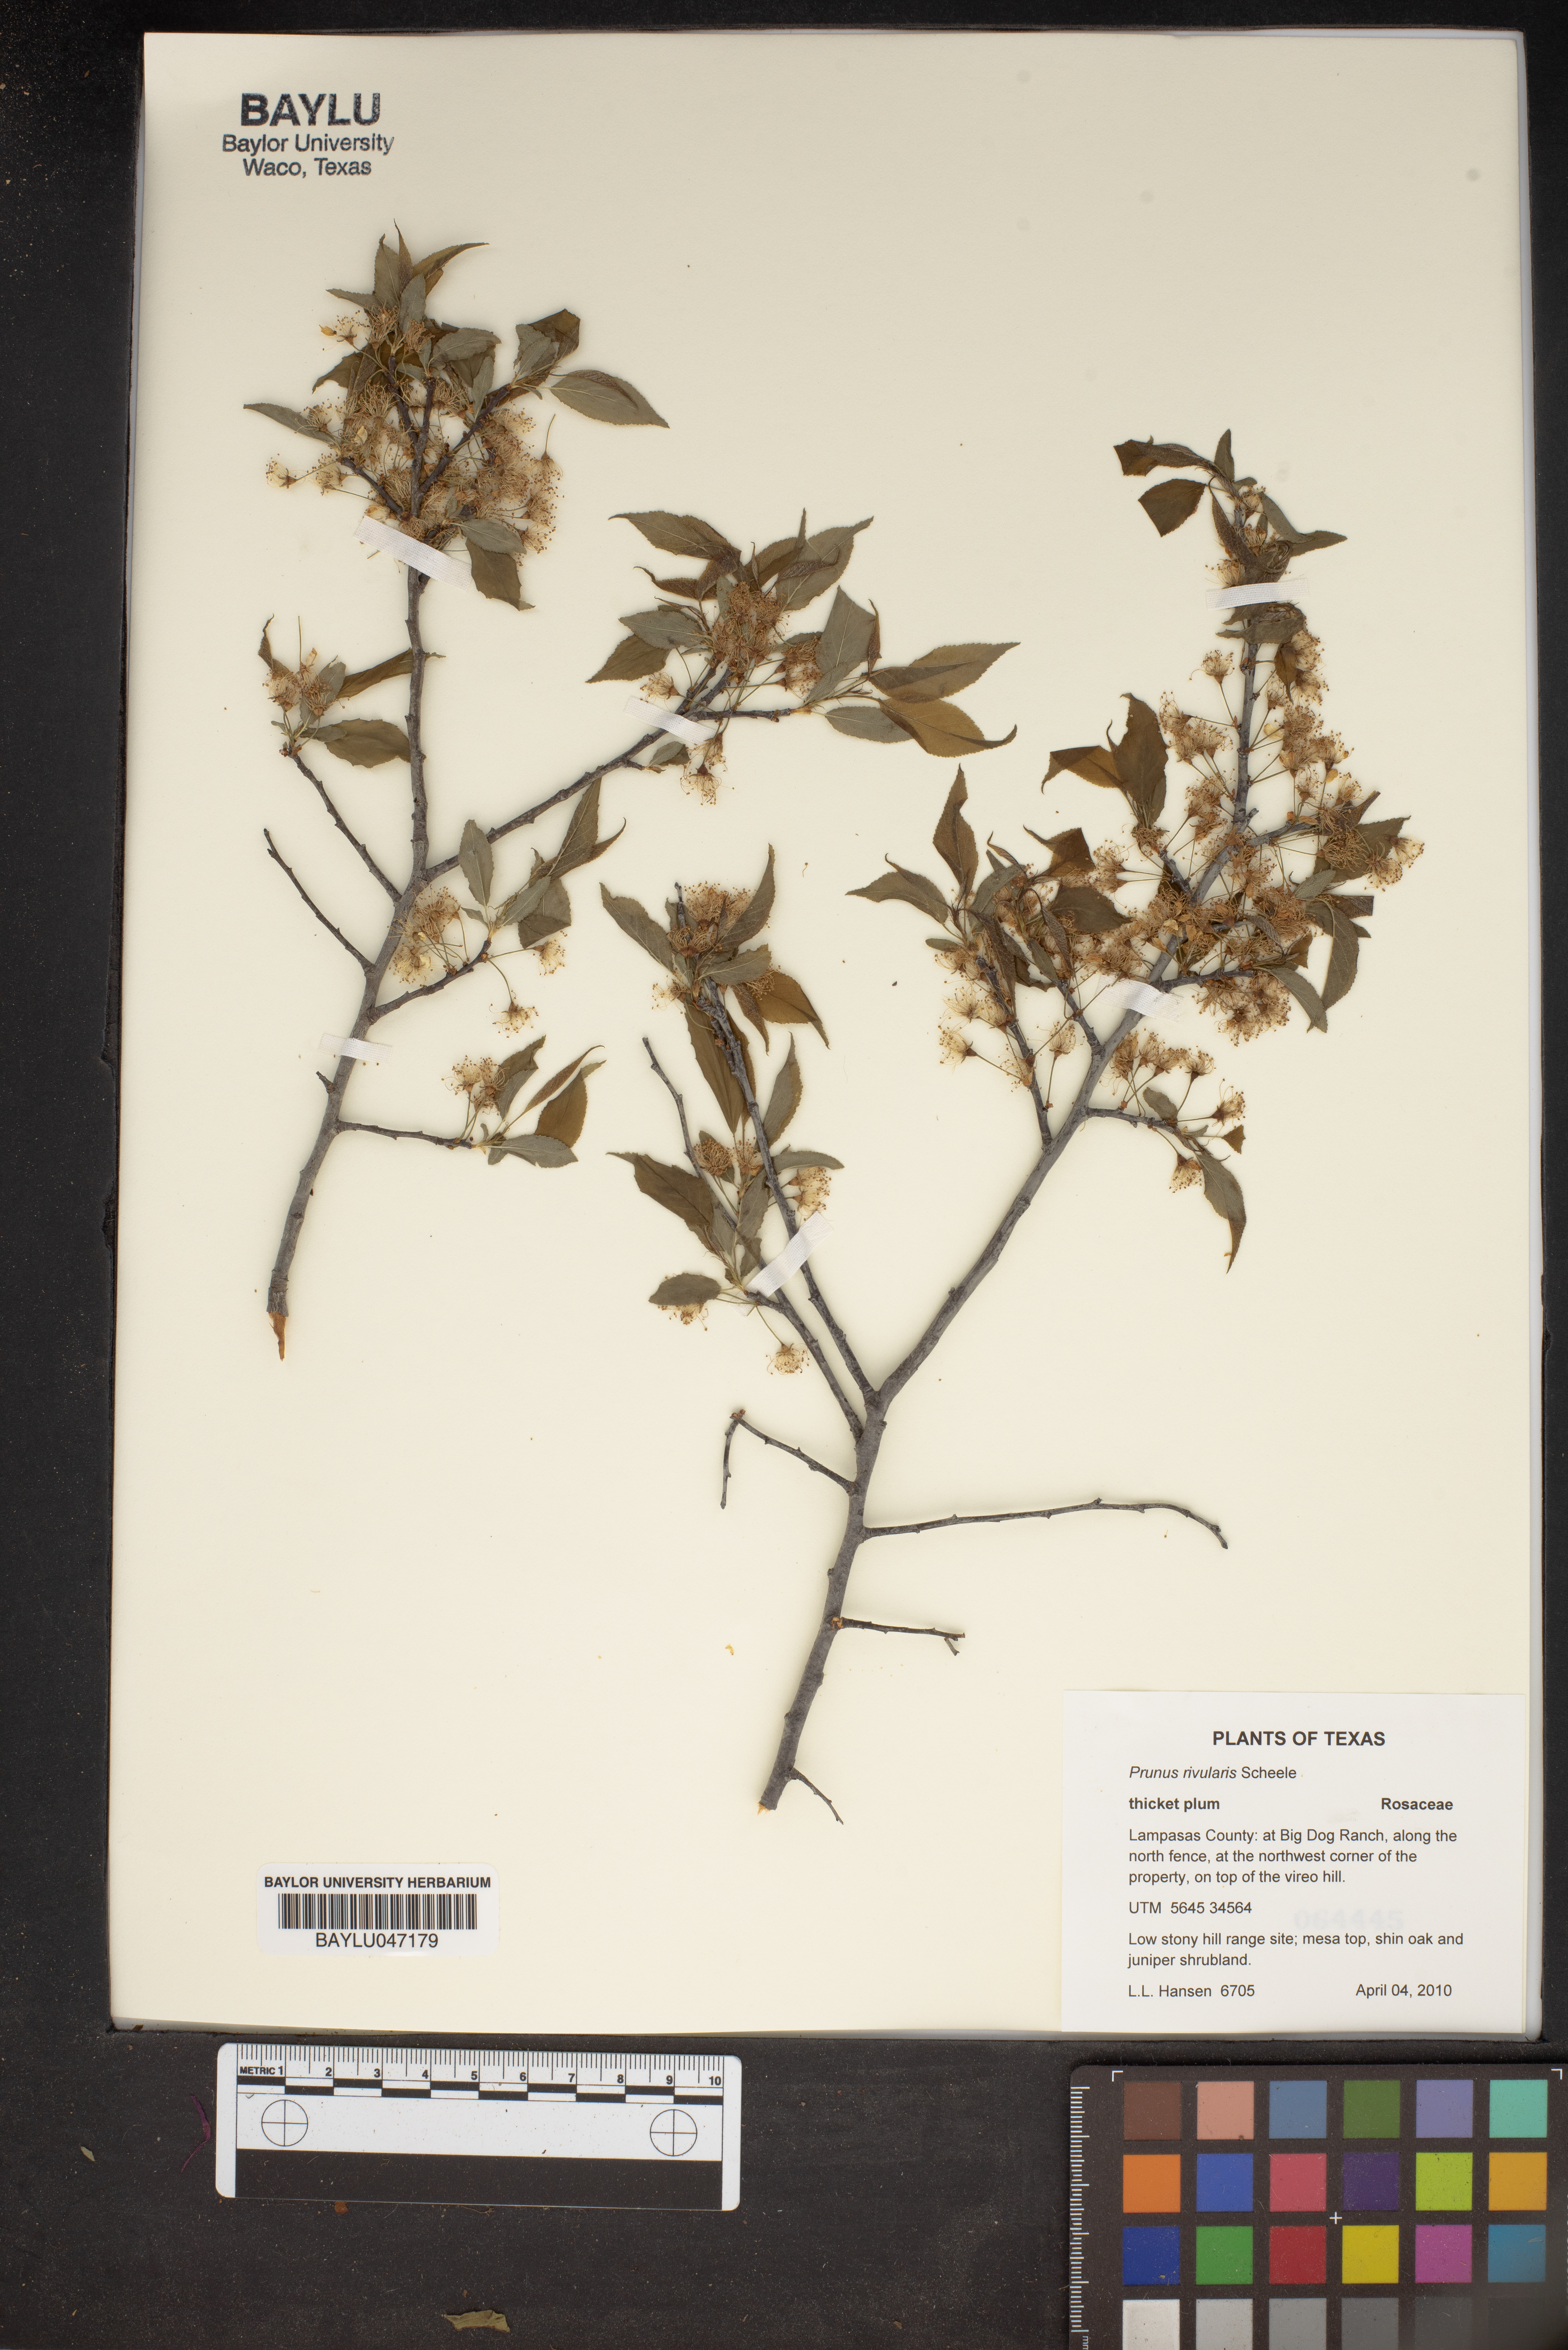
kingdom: Plantae
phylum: Tracheophyta
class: Magnoliopsida
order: Rosales
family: Rosaceae
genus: Prunus
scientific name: Prunus rivularis
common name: Creek plum
